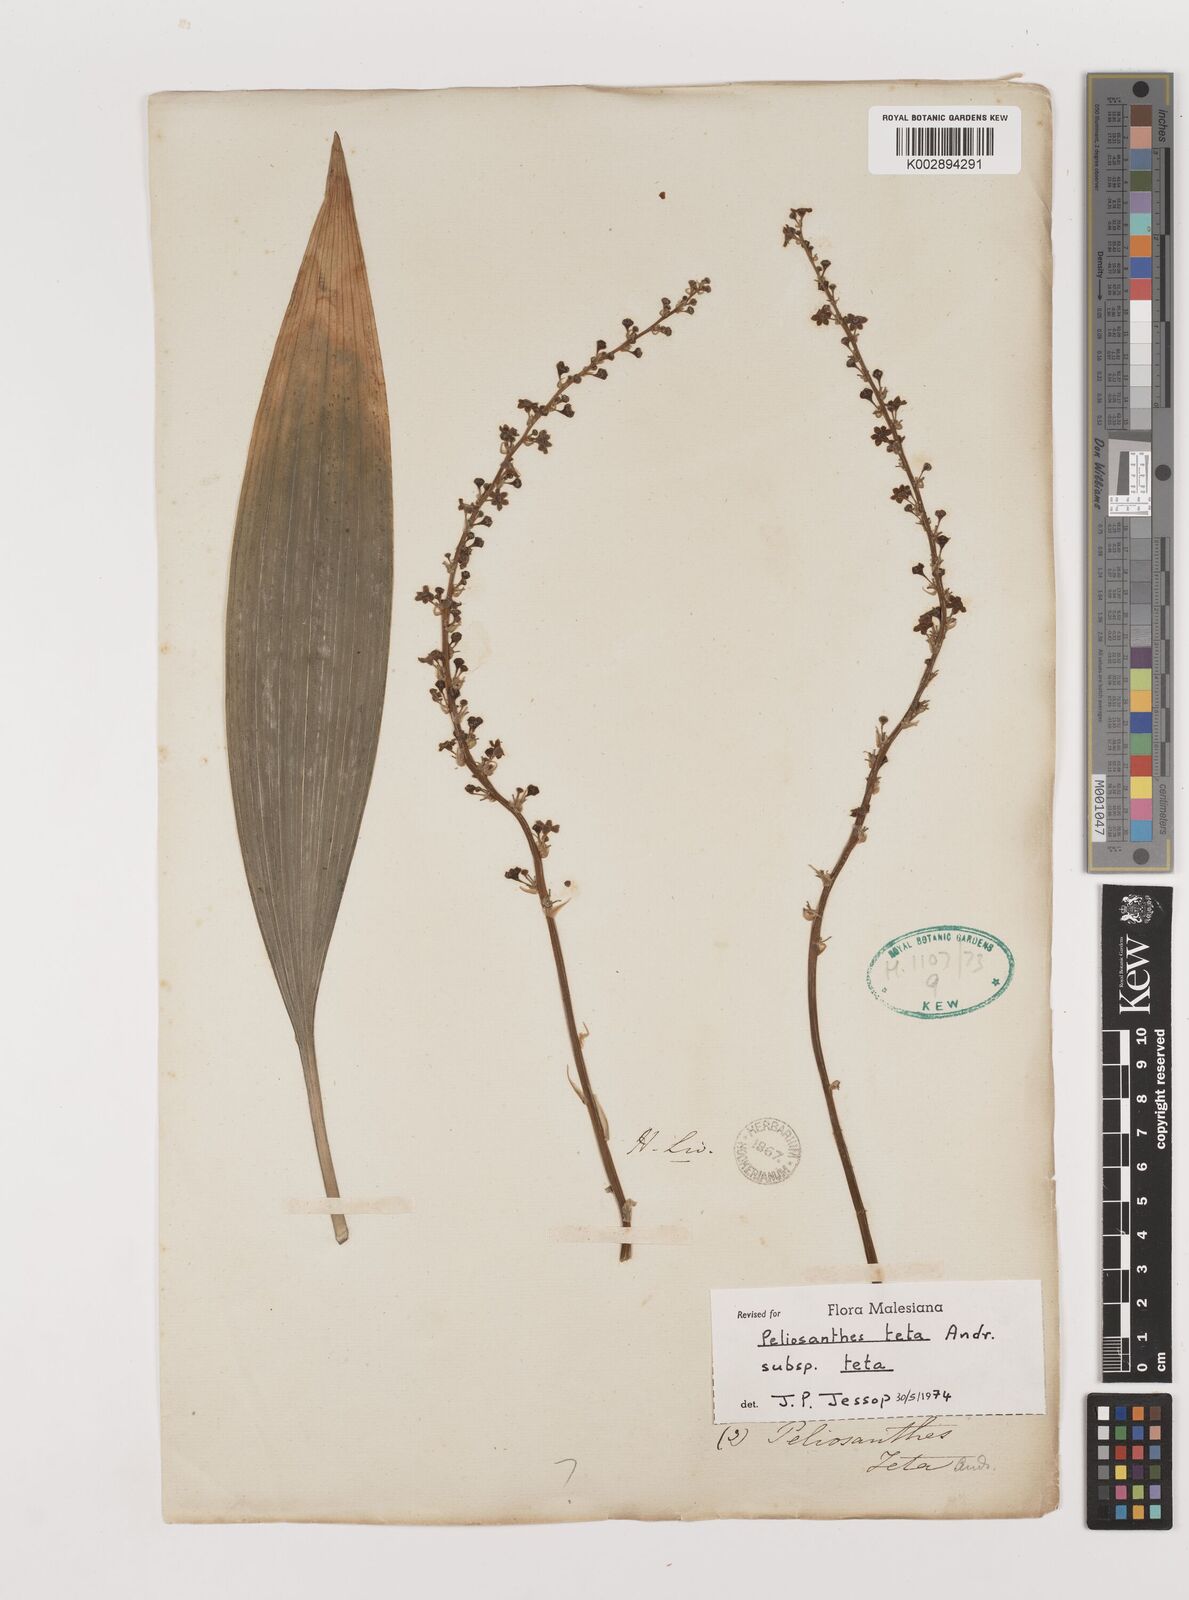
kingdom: Plantae
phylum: Tracheophyta
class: Liliopsida
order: Asparagales
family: Asparagaceae
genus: Peliosanthes
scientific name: Peliosanthes teta
